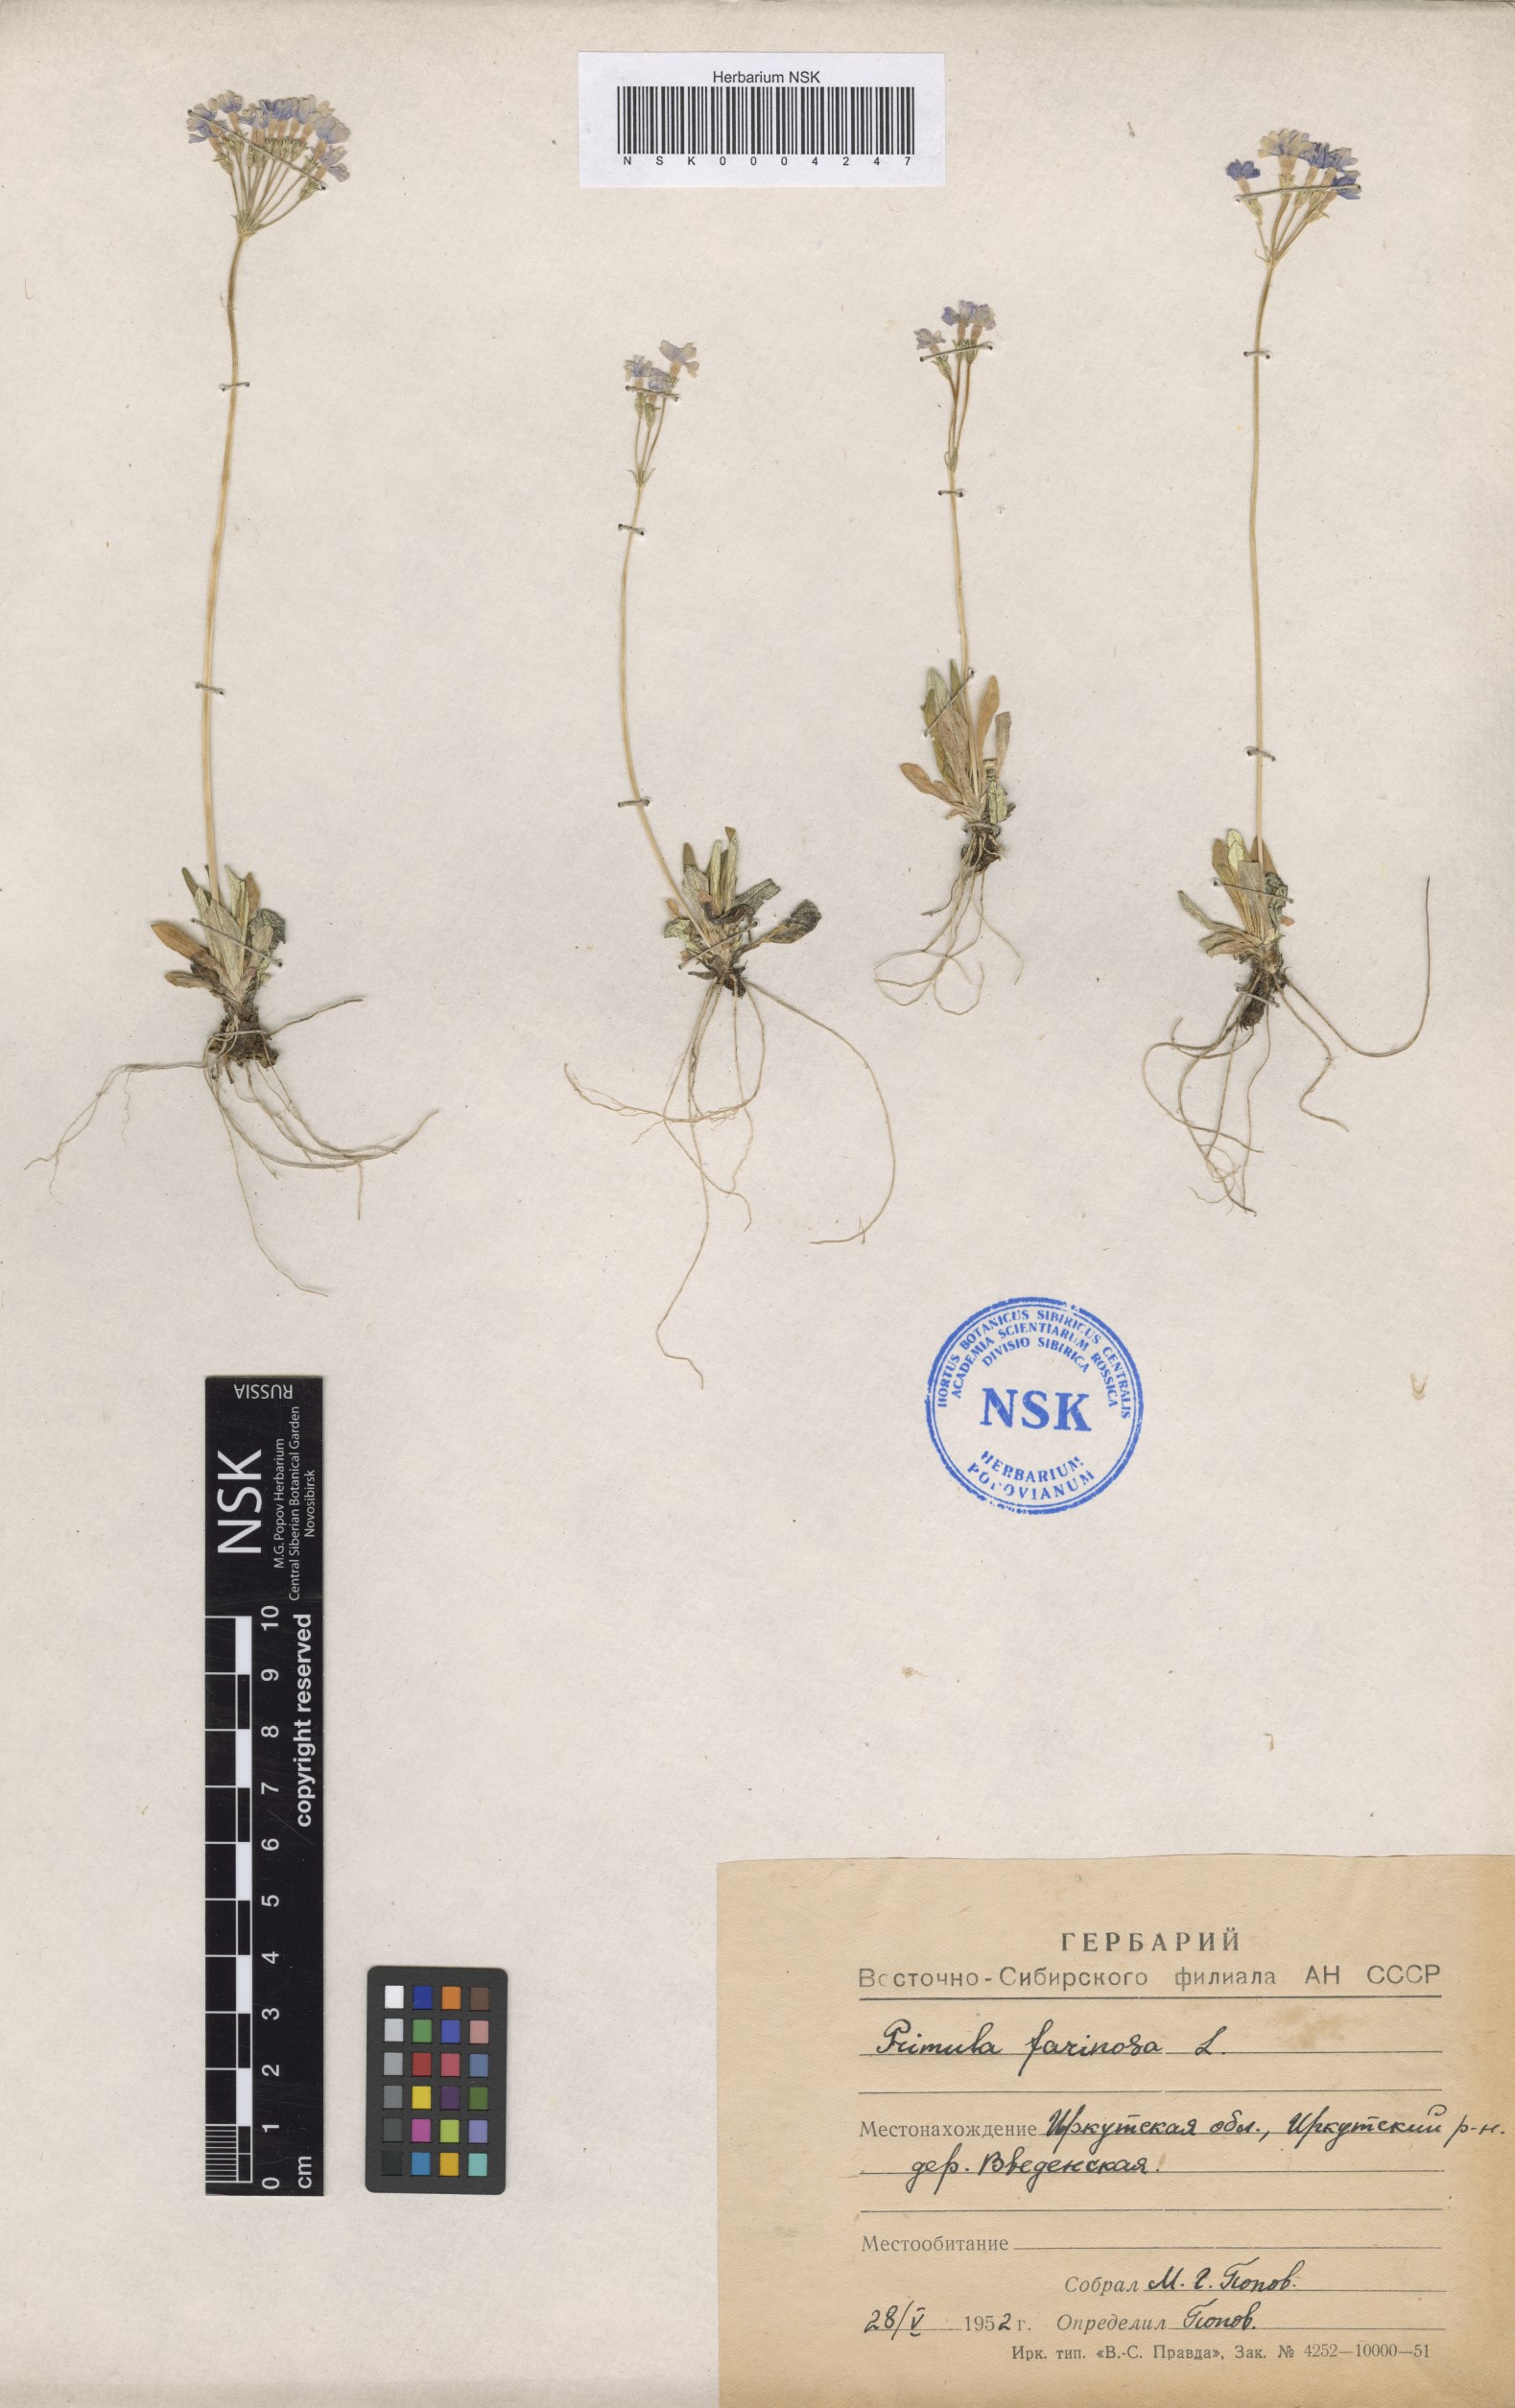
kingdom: Plantae
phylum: Tracheophyta
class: Magnoliopsida
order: Ericales
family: Primulaceae
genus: Primula
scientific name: Primula farinosa
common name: Bird's-eye primrose
